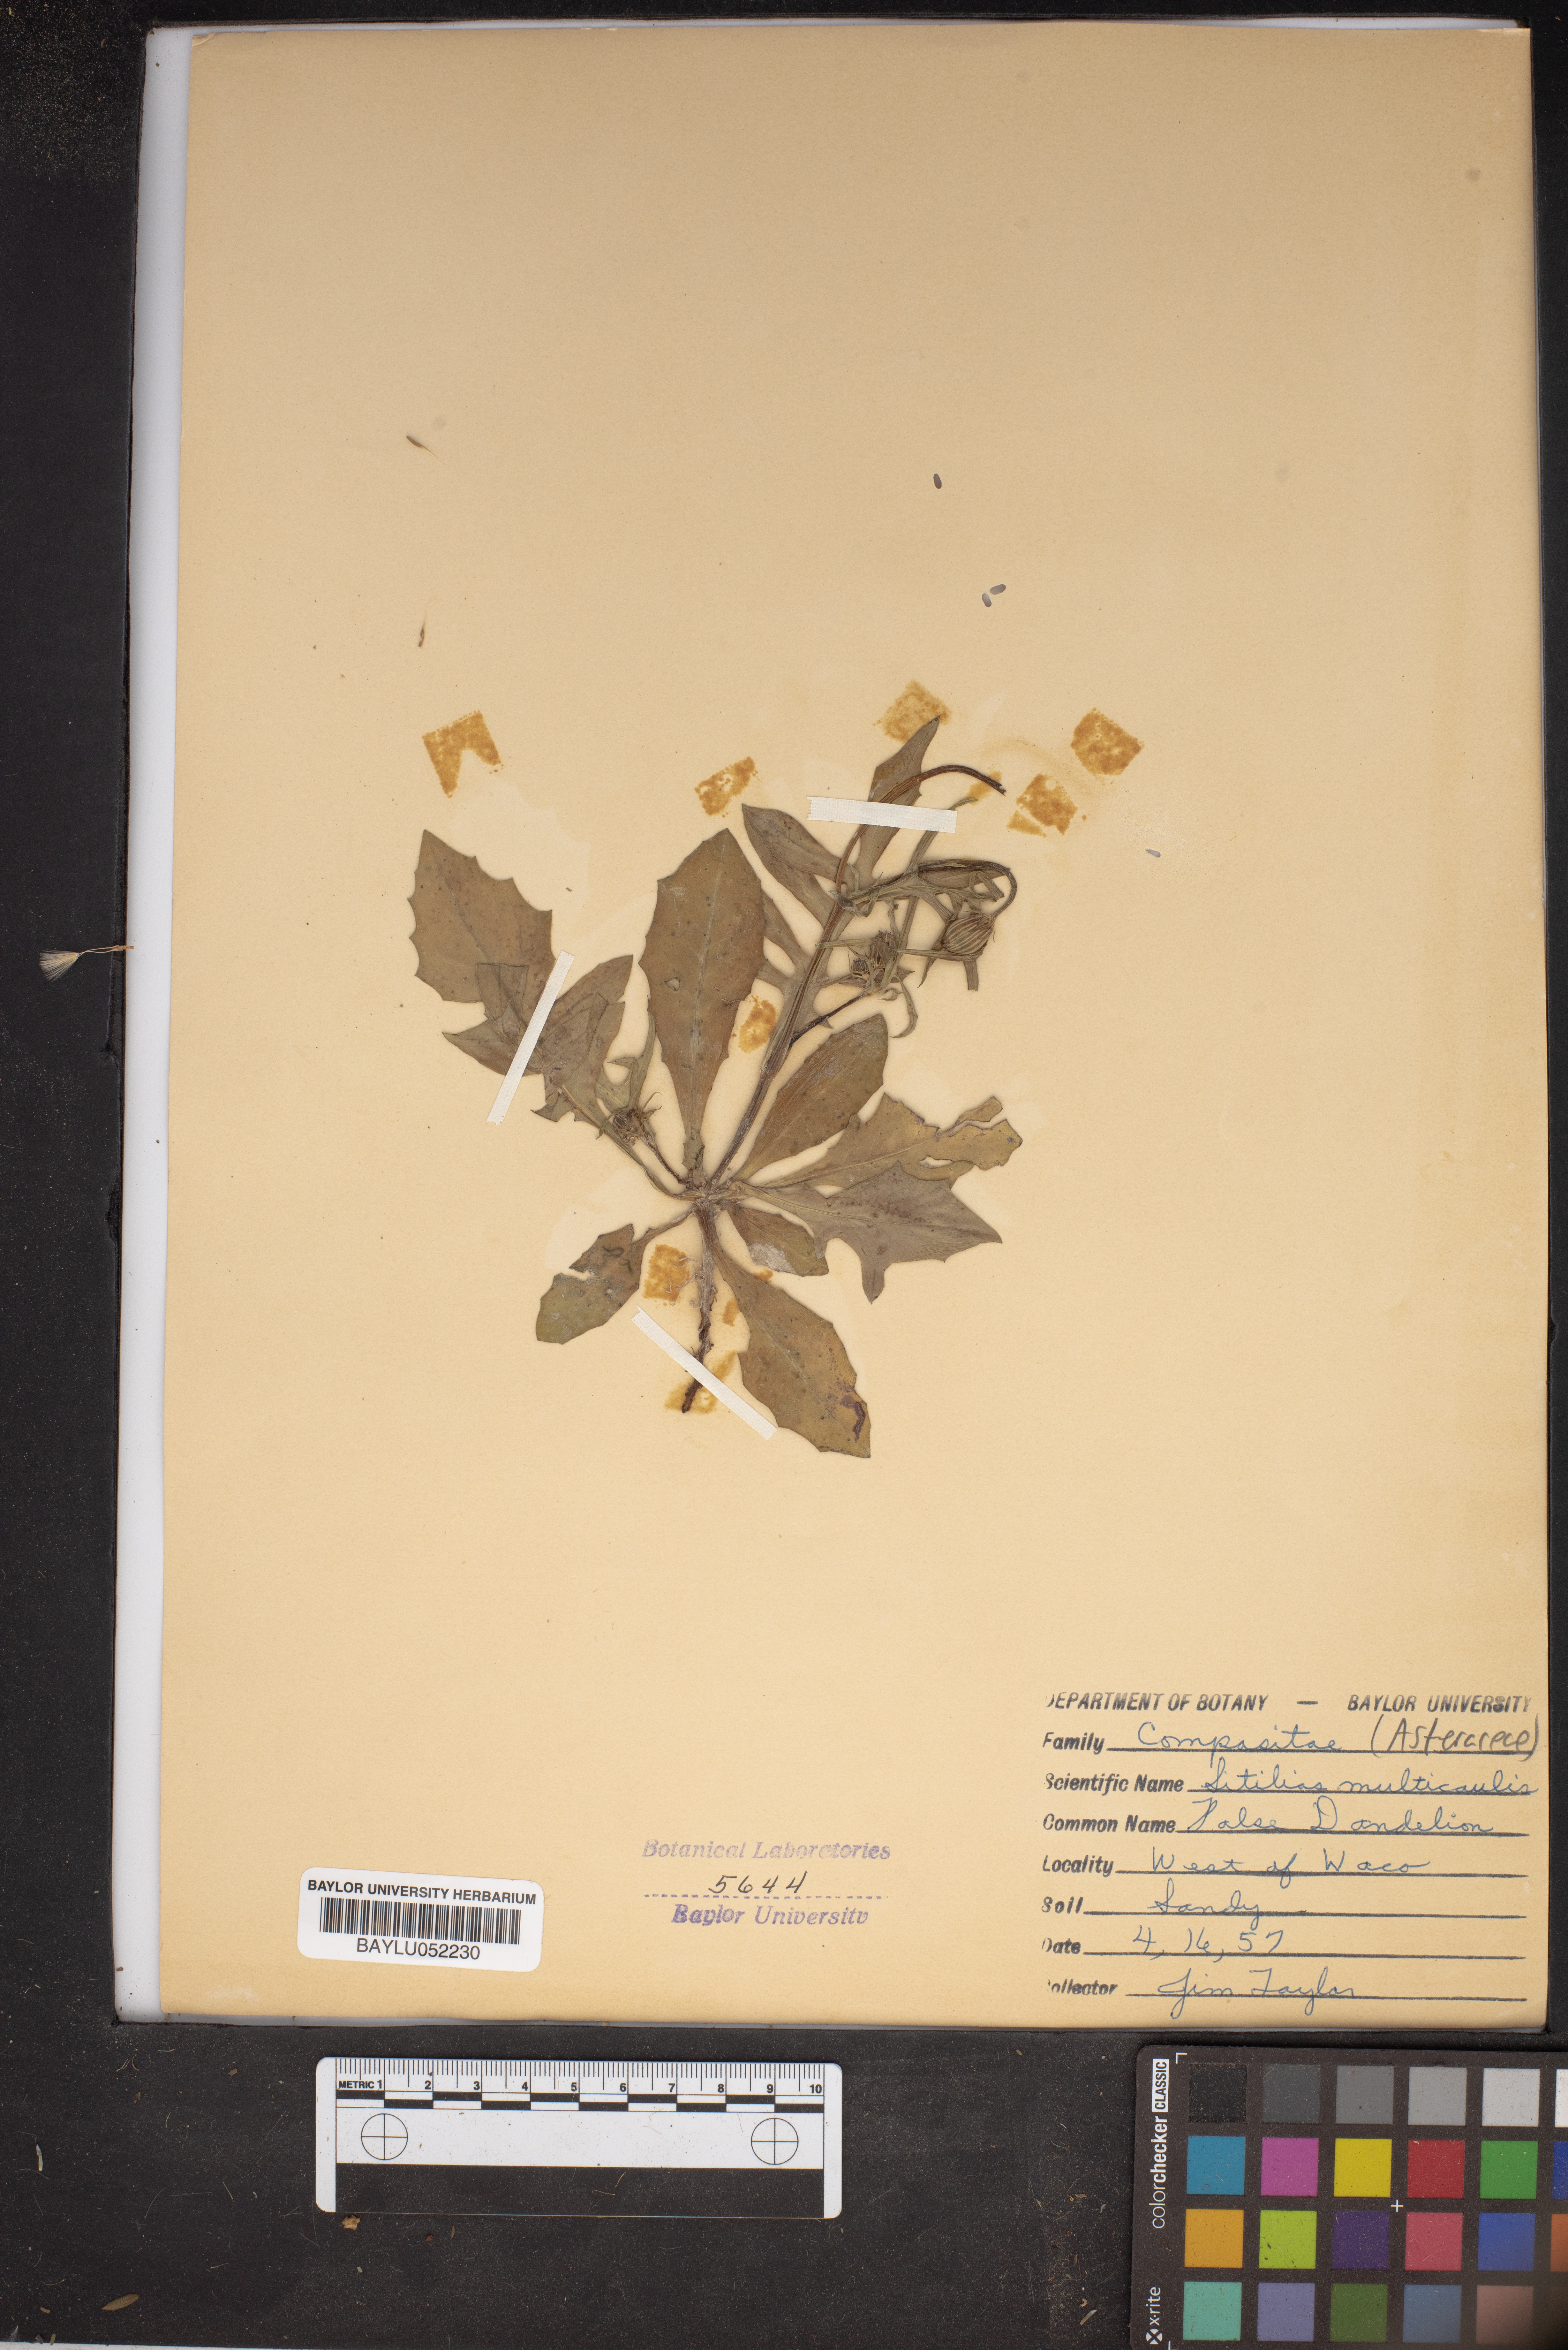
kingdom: Plantae
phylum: Tracheophyta
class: Magnoliopsida
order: Asterales
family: Asteraceae
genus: Pyrrhopappus
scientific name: Pyrrhopappus pauciflorus
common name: Texas false dandelion
